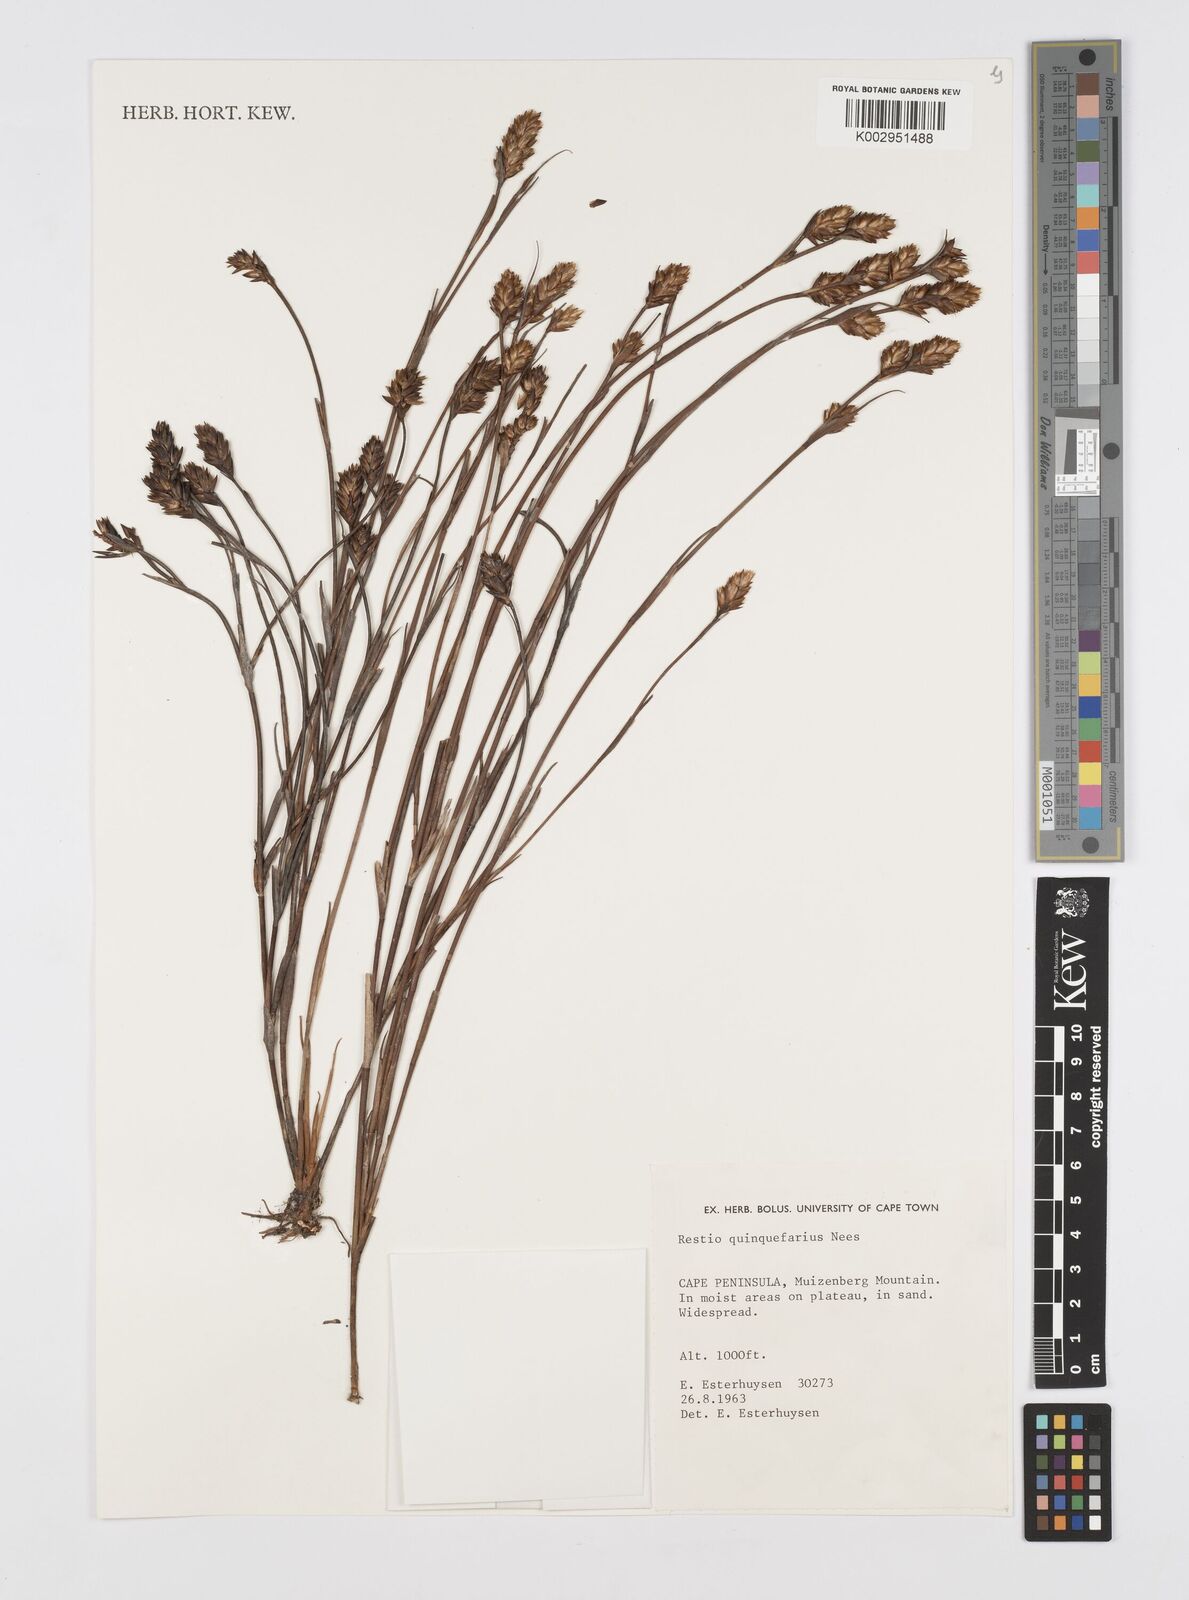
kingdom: Plantae
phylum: Tracheophyta
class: Liliopsida
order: Poales
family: Restionaceae
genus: Restio
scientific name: Restio quinquefarius
